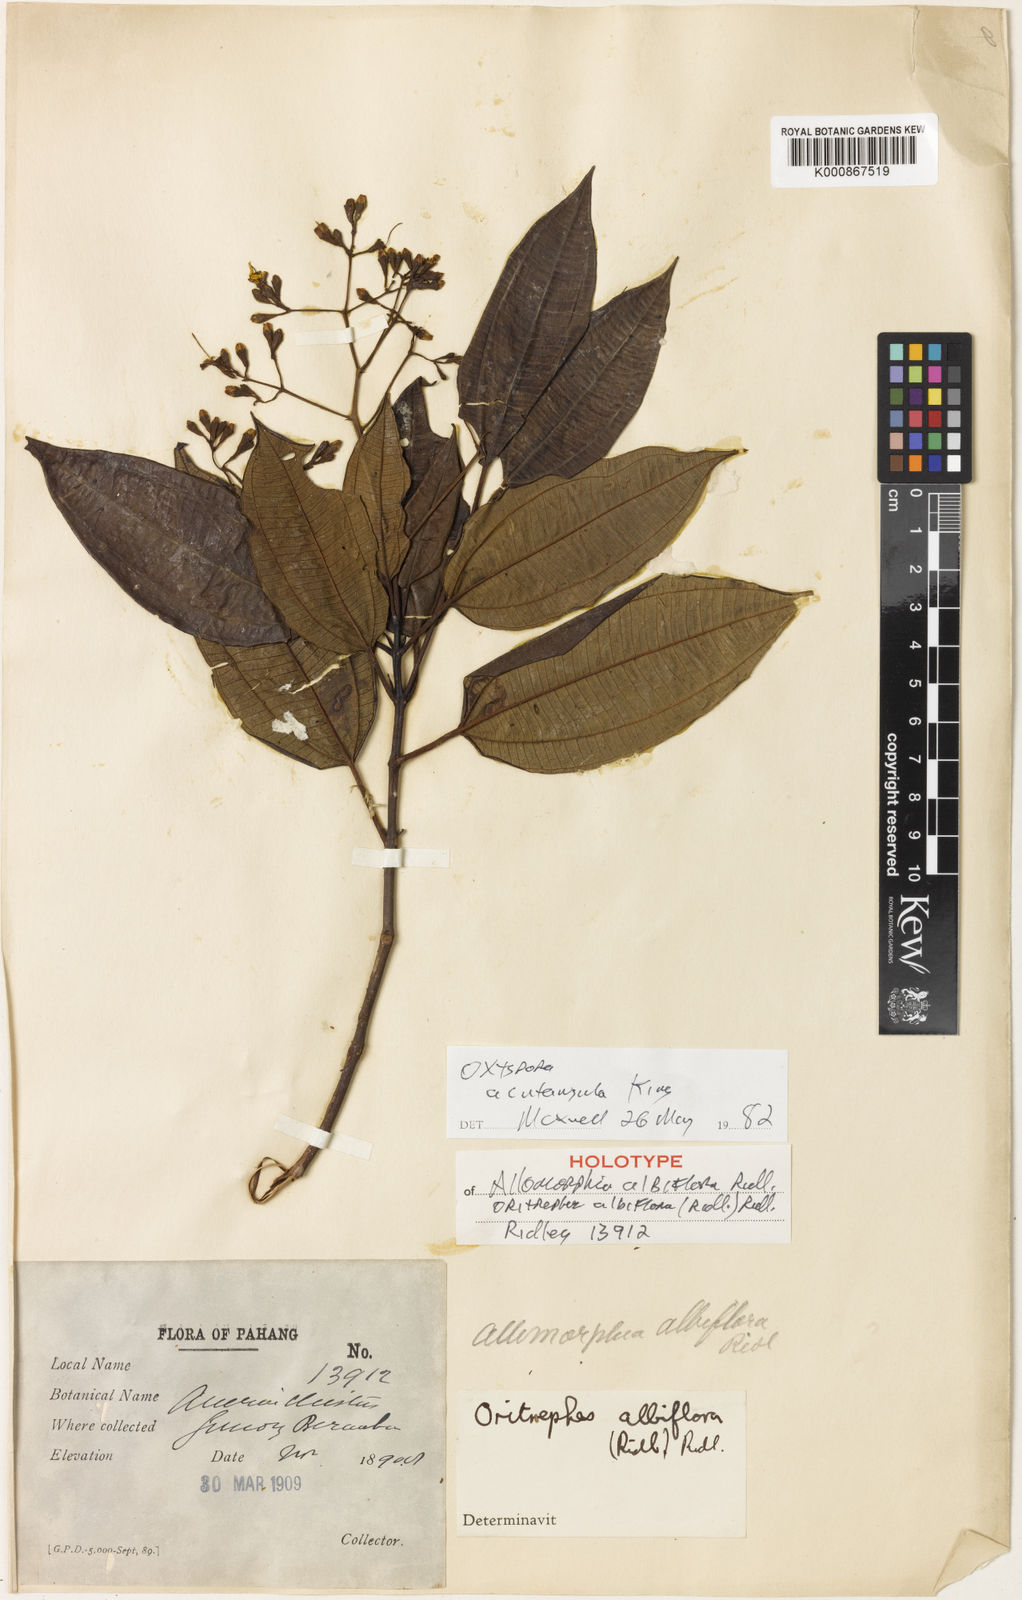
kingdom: Plantae
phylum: Tracheophyta
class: Magnoliopsida
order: Myrtales
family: Melastomataceae
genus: Allomorphia
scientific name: Allomorphia acutangula
